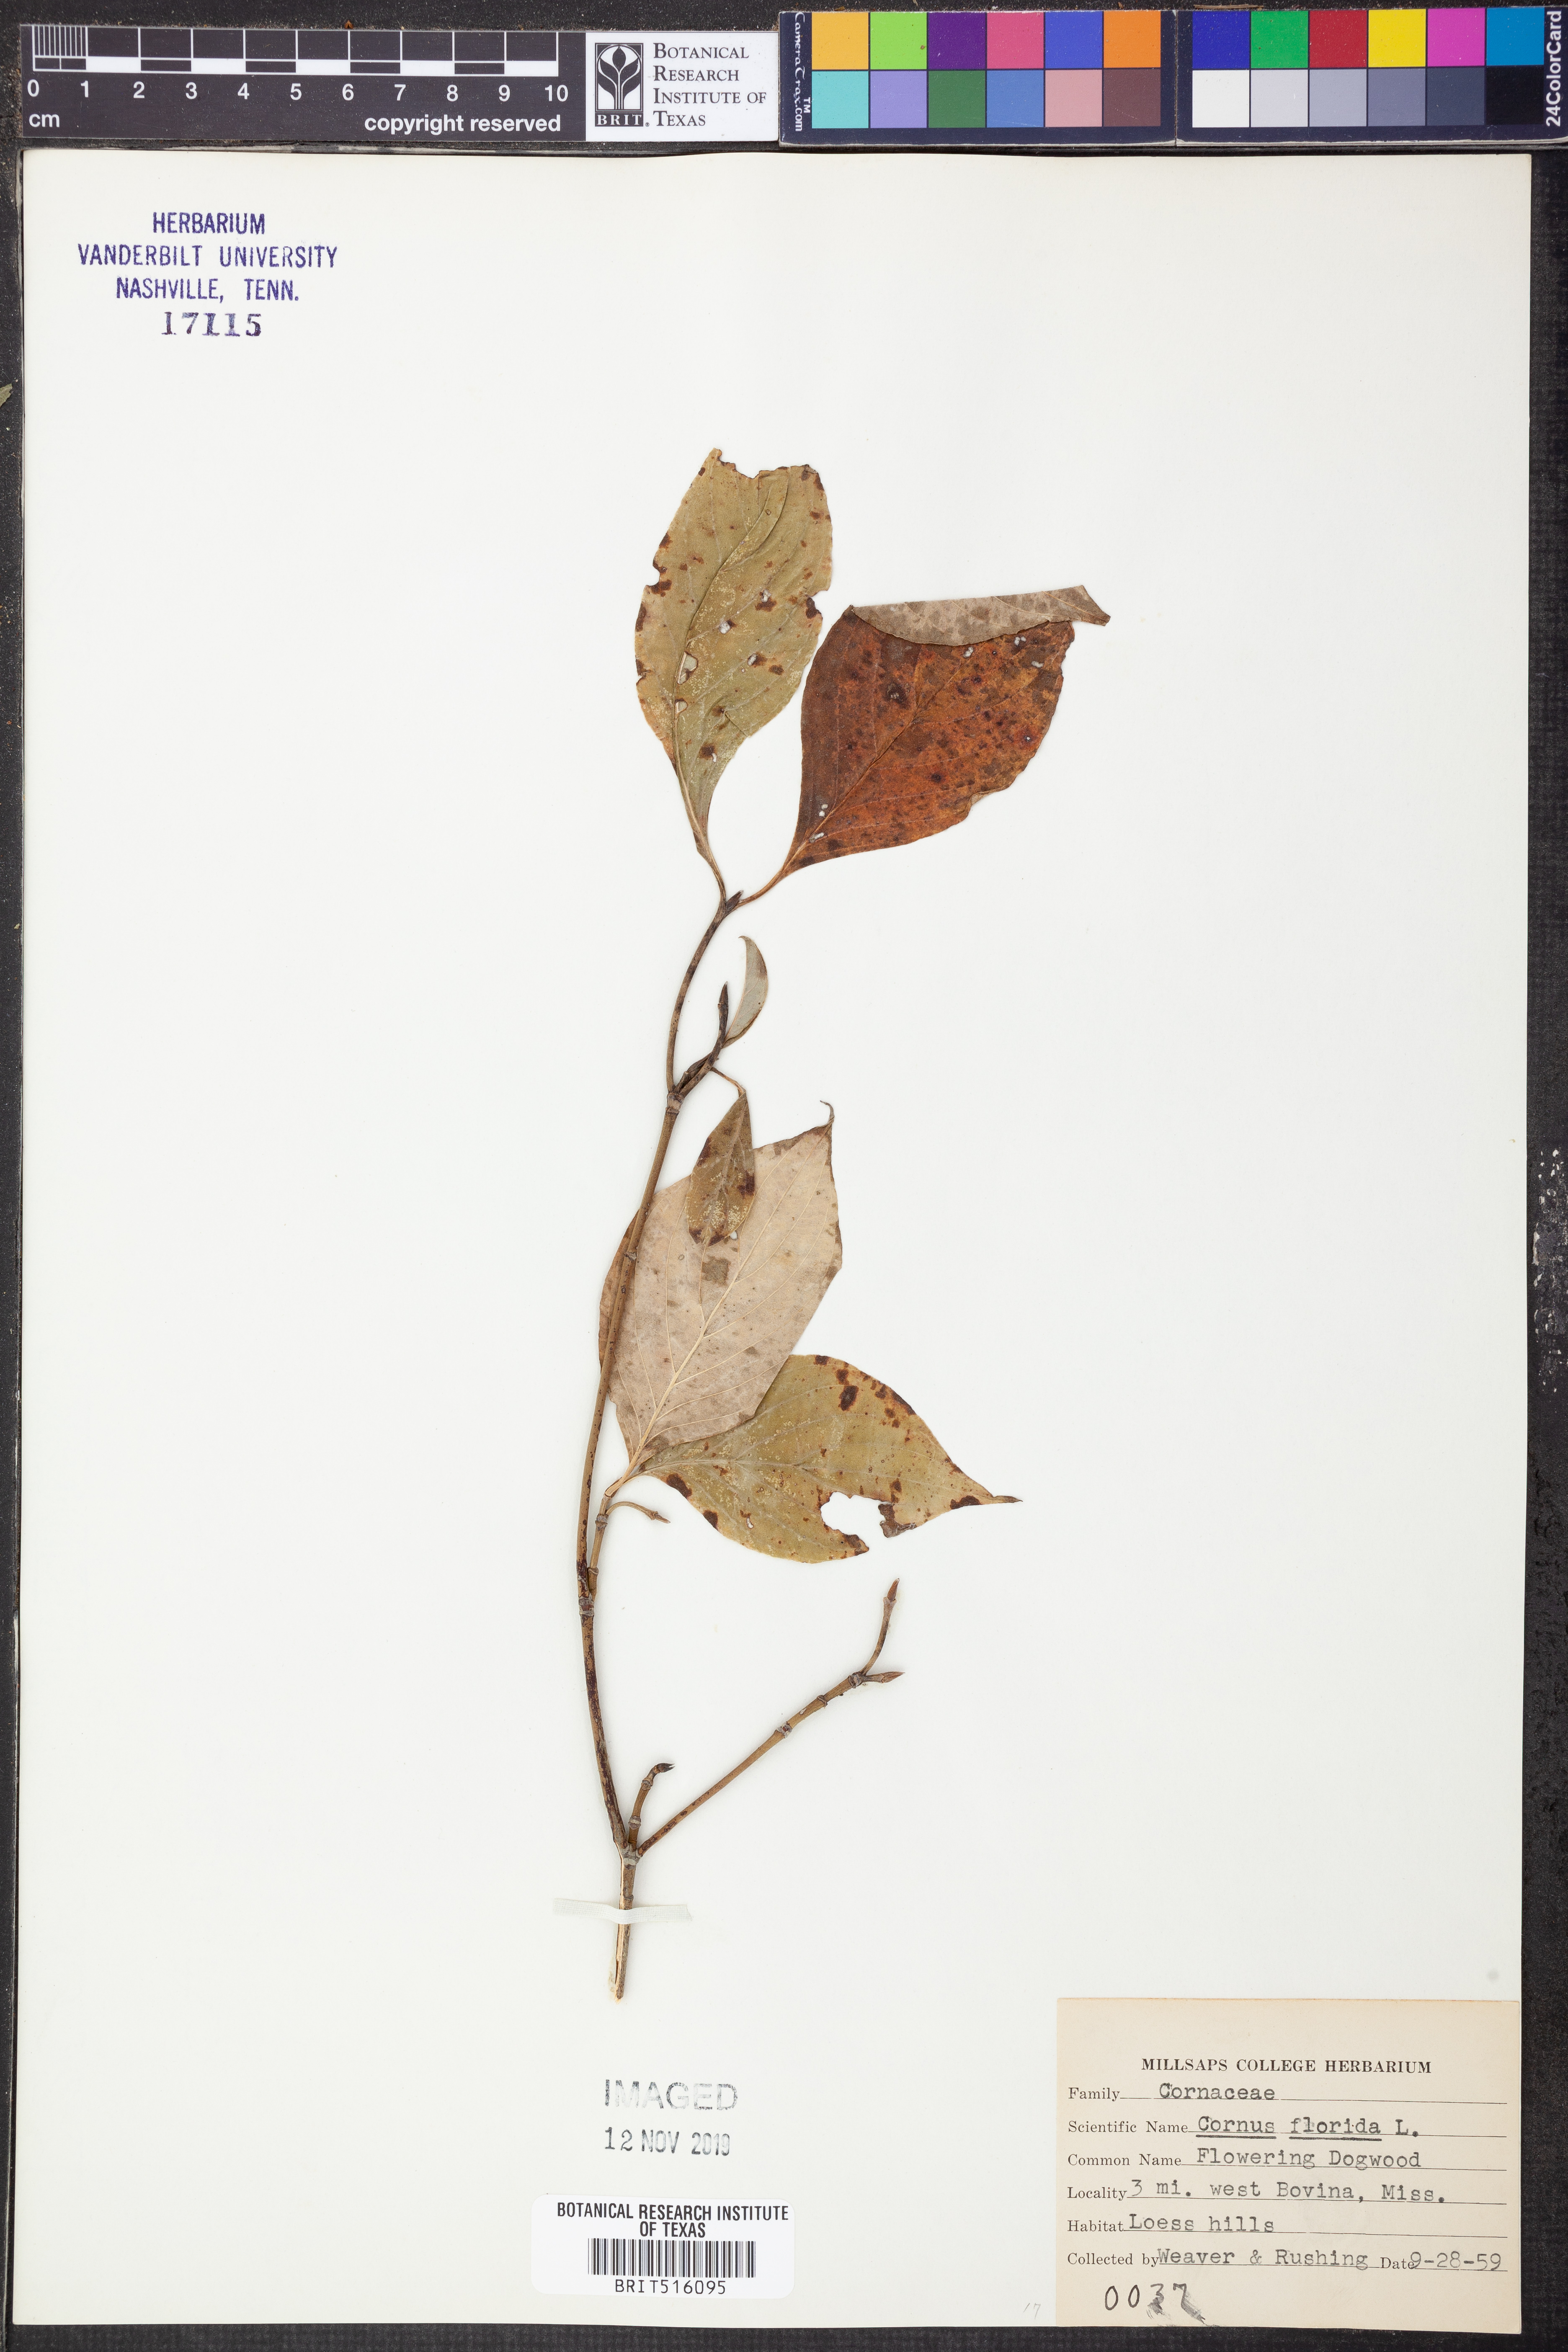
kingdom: Plantae
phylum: Tracheophyta
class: Magnoliopsida
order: Cornales
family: Cornaceae
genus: Cornus
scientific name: Cornus florida
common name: Flowering dogwood
